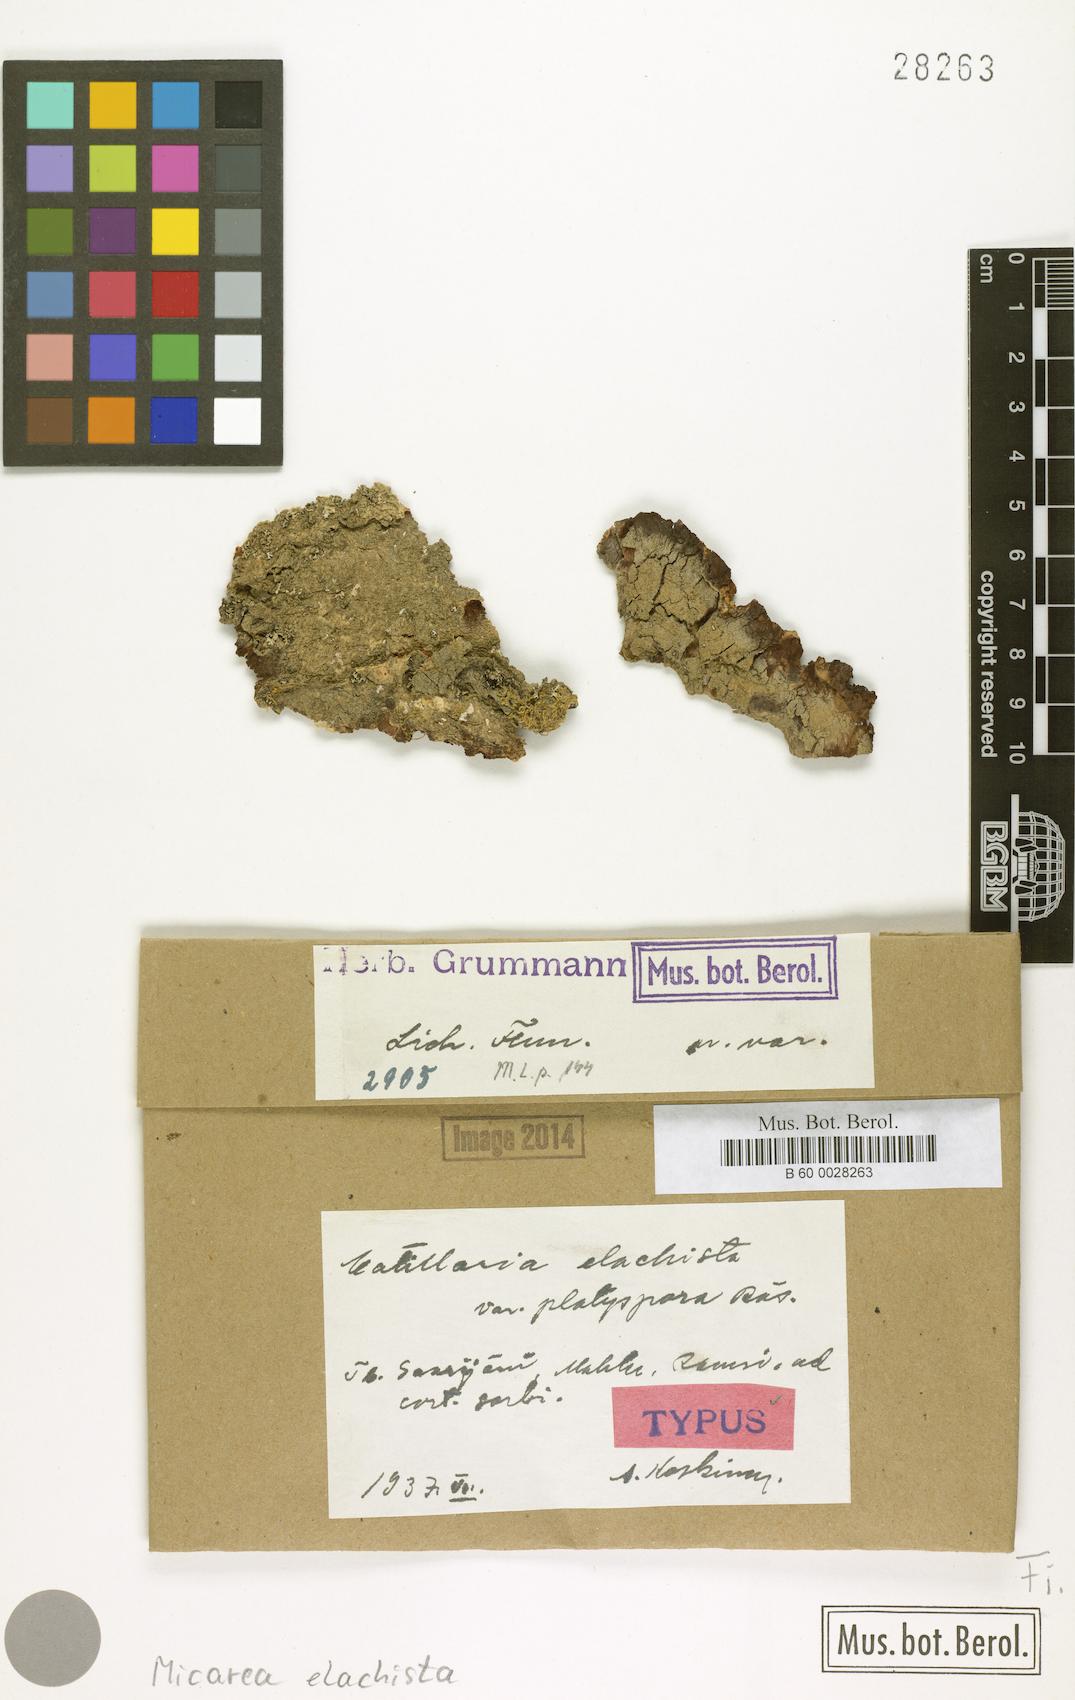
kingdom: Fungi
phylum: Ascomycota
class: Lecanoromycetes
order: Lecanorales
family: Byssolomataceae
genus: Micarea
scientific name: Micarea elachista
